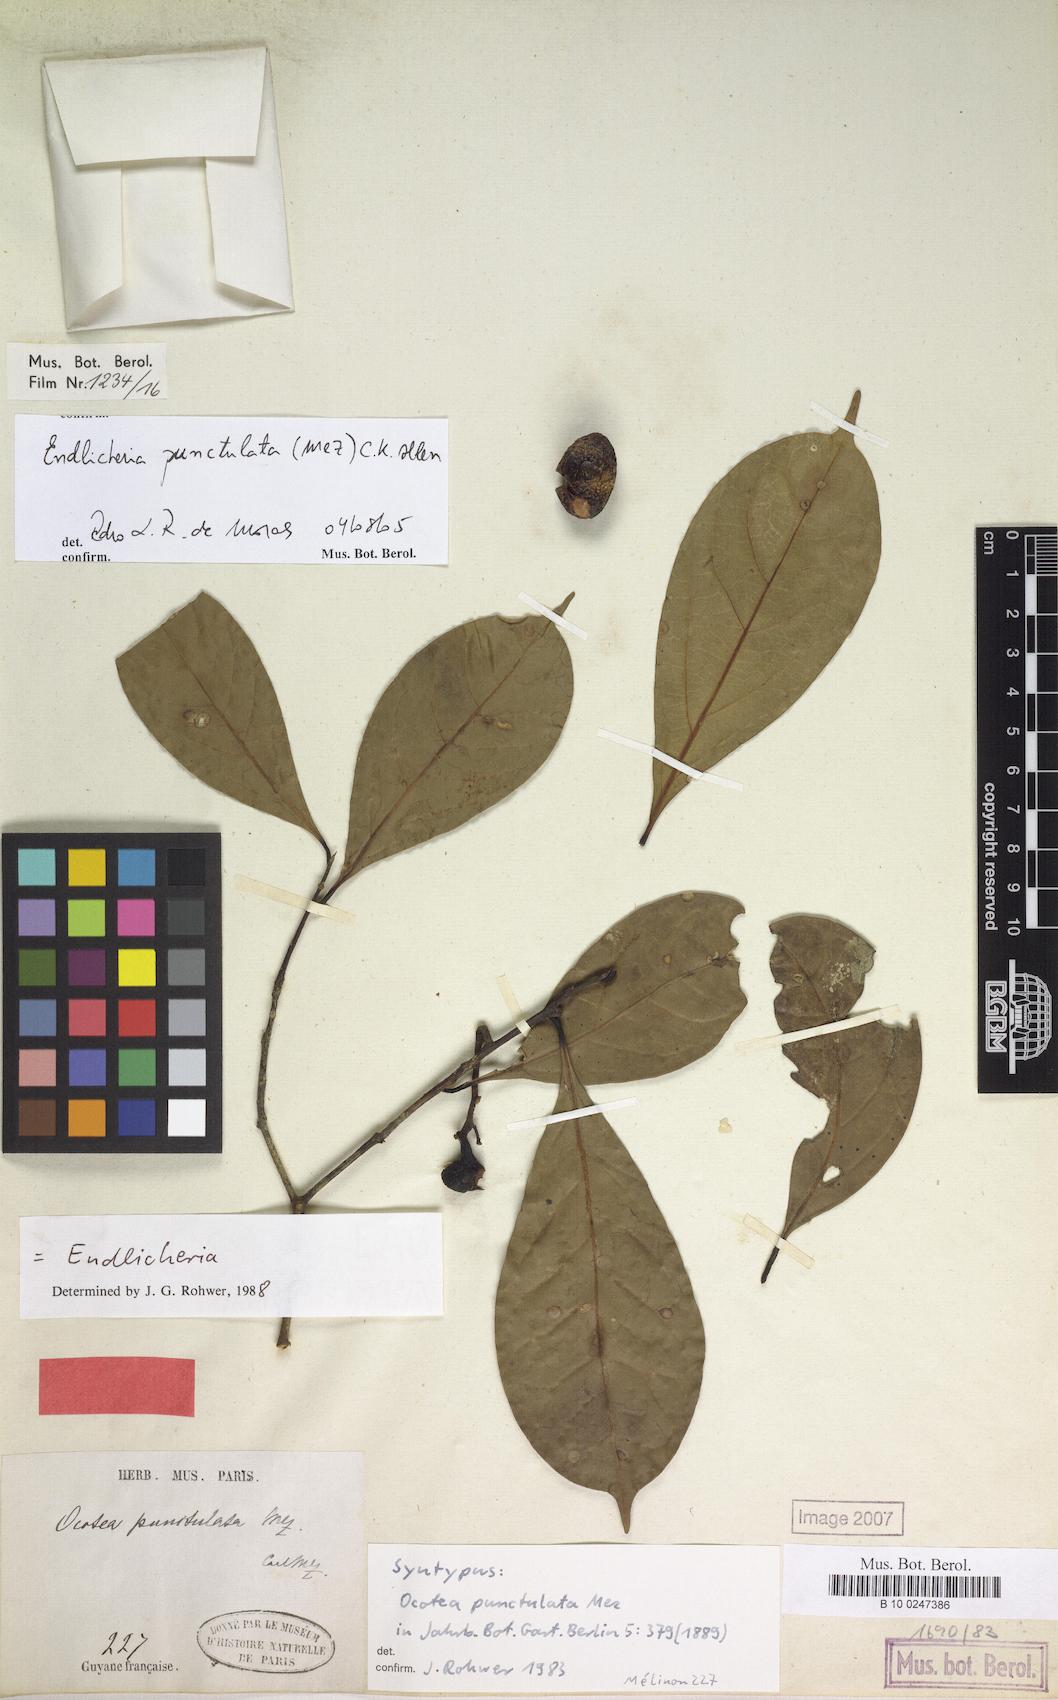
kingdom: Plantae
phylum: Tracheophyta
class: Magnoliopsida
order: Laurales
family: Lauraceae
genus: Endlicheria
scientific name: Endlicheria punctulata
